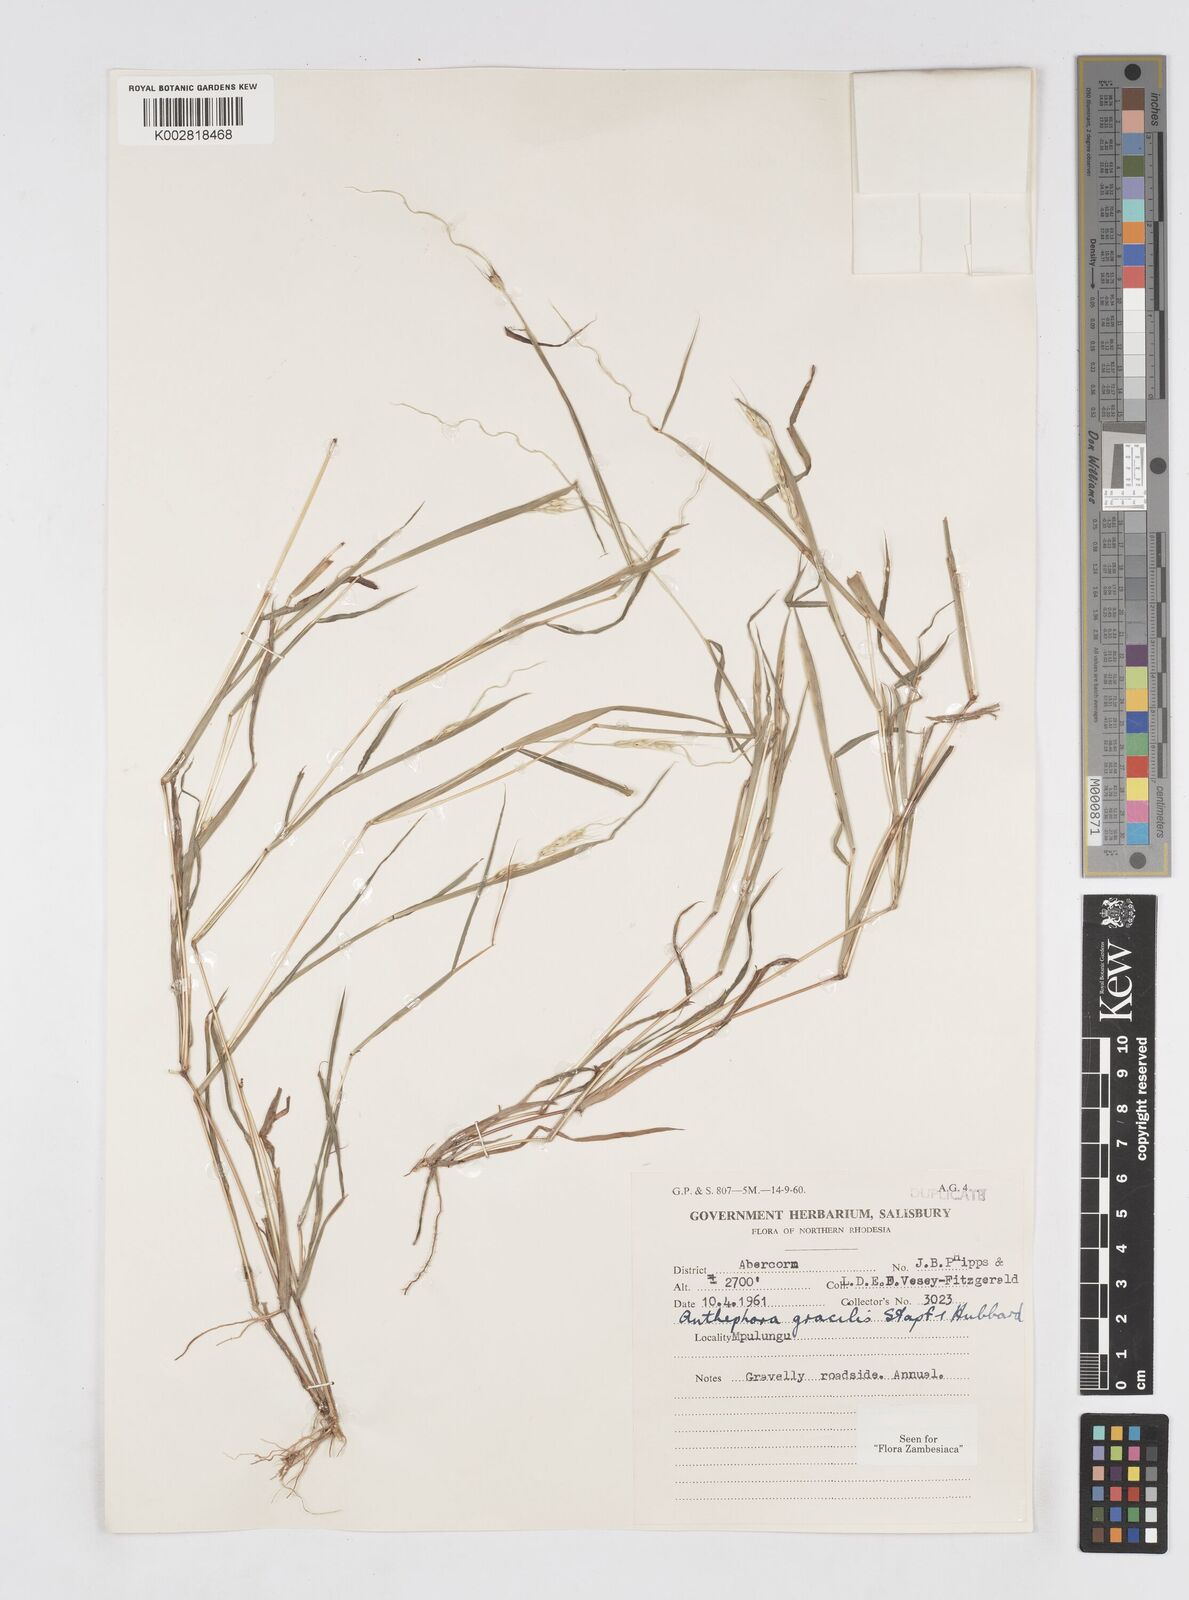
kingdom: Plantae
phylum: Tracheophyta
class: Liliopsida
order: Poales
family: Poaceae
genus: Anthephora
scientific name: Anthephora truncata
